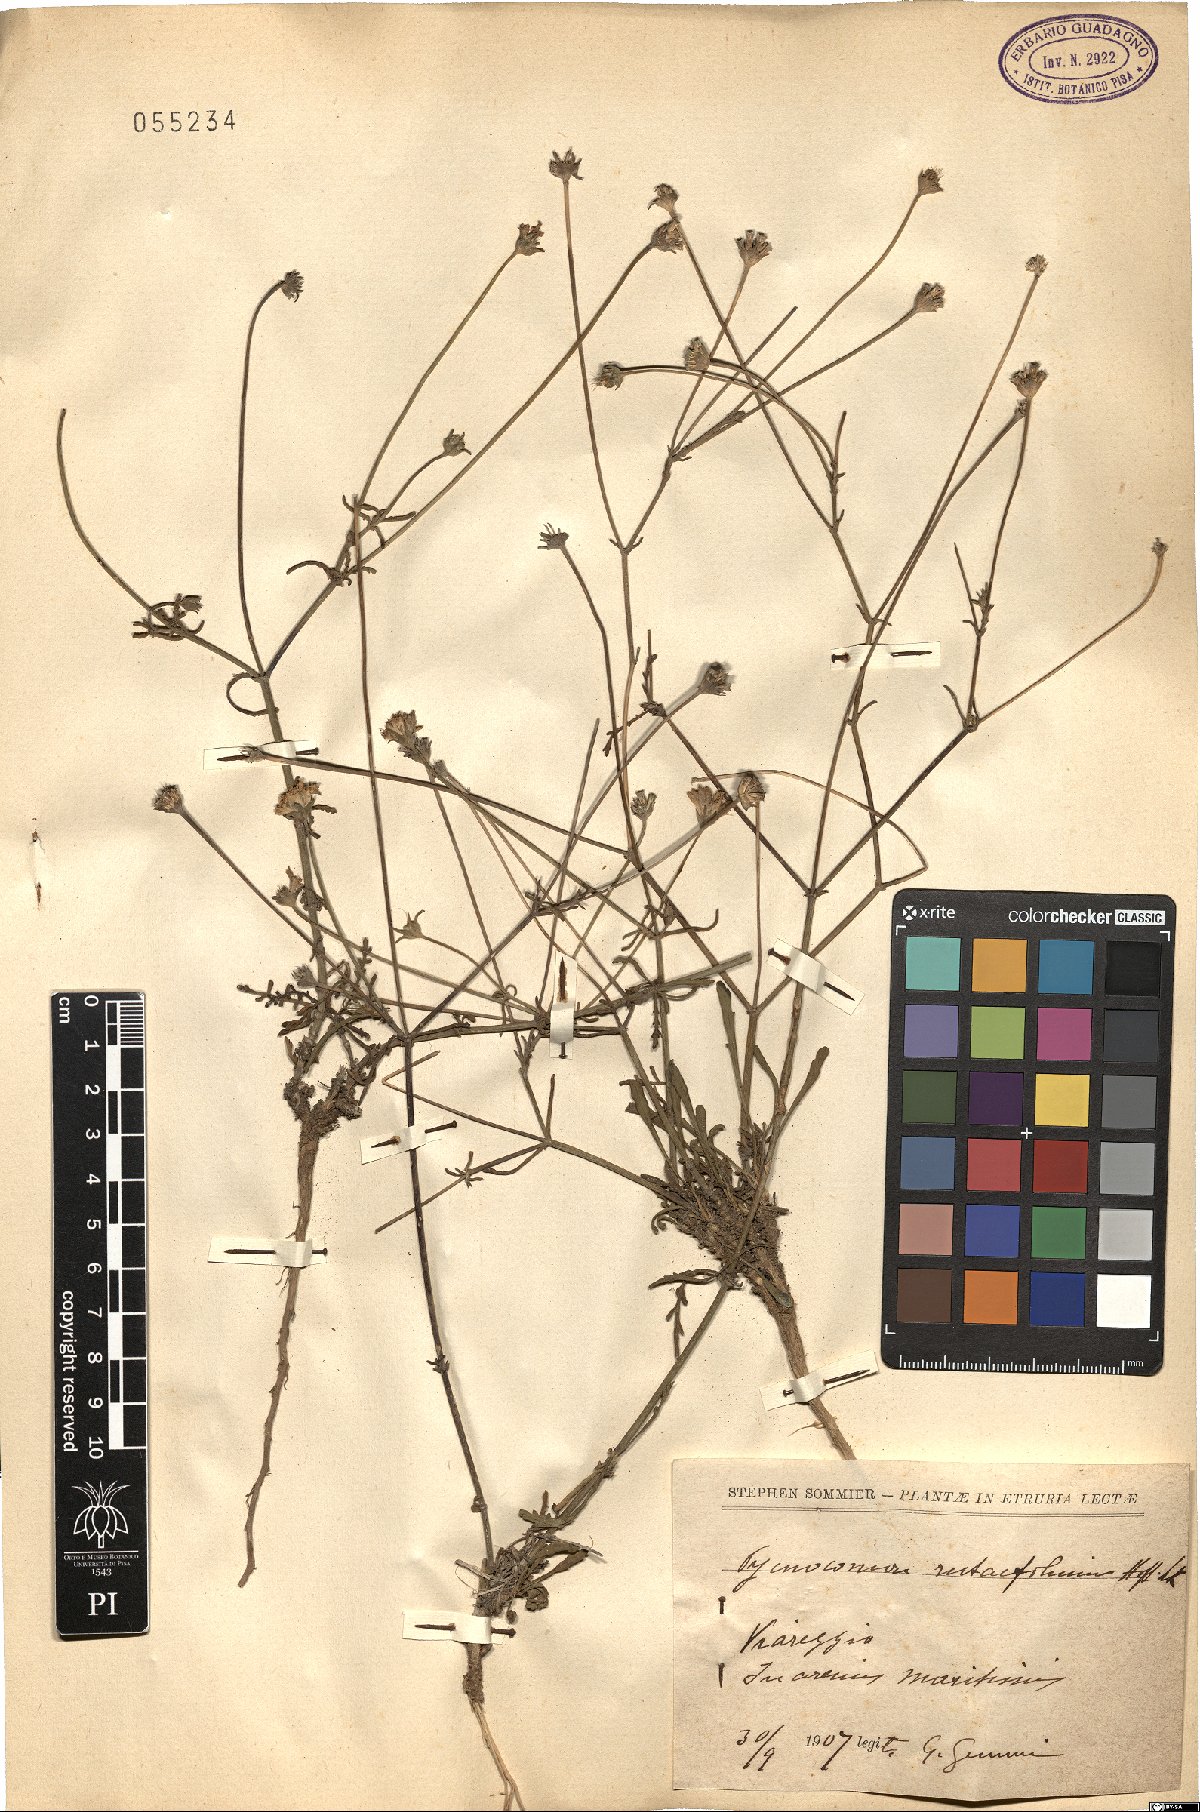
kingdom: Plantae
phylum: Tracheophyta
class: Magnoliopsida
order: Dipsacales
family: Caprifoliaceae
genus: Pycnocomon
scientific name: Pycnocomon rutifolium
